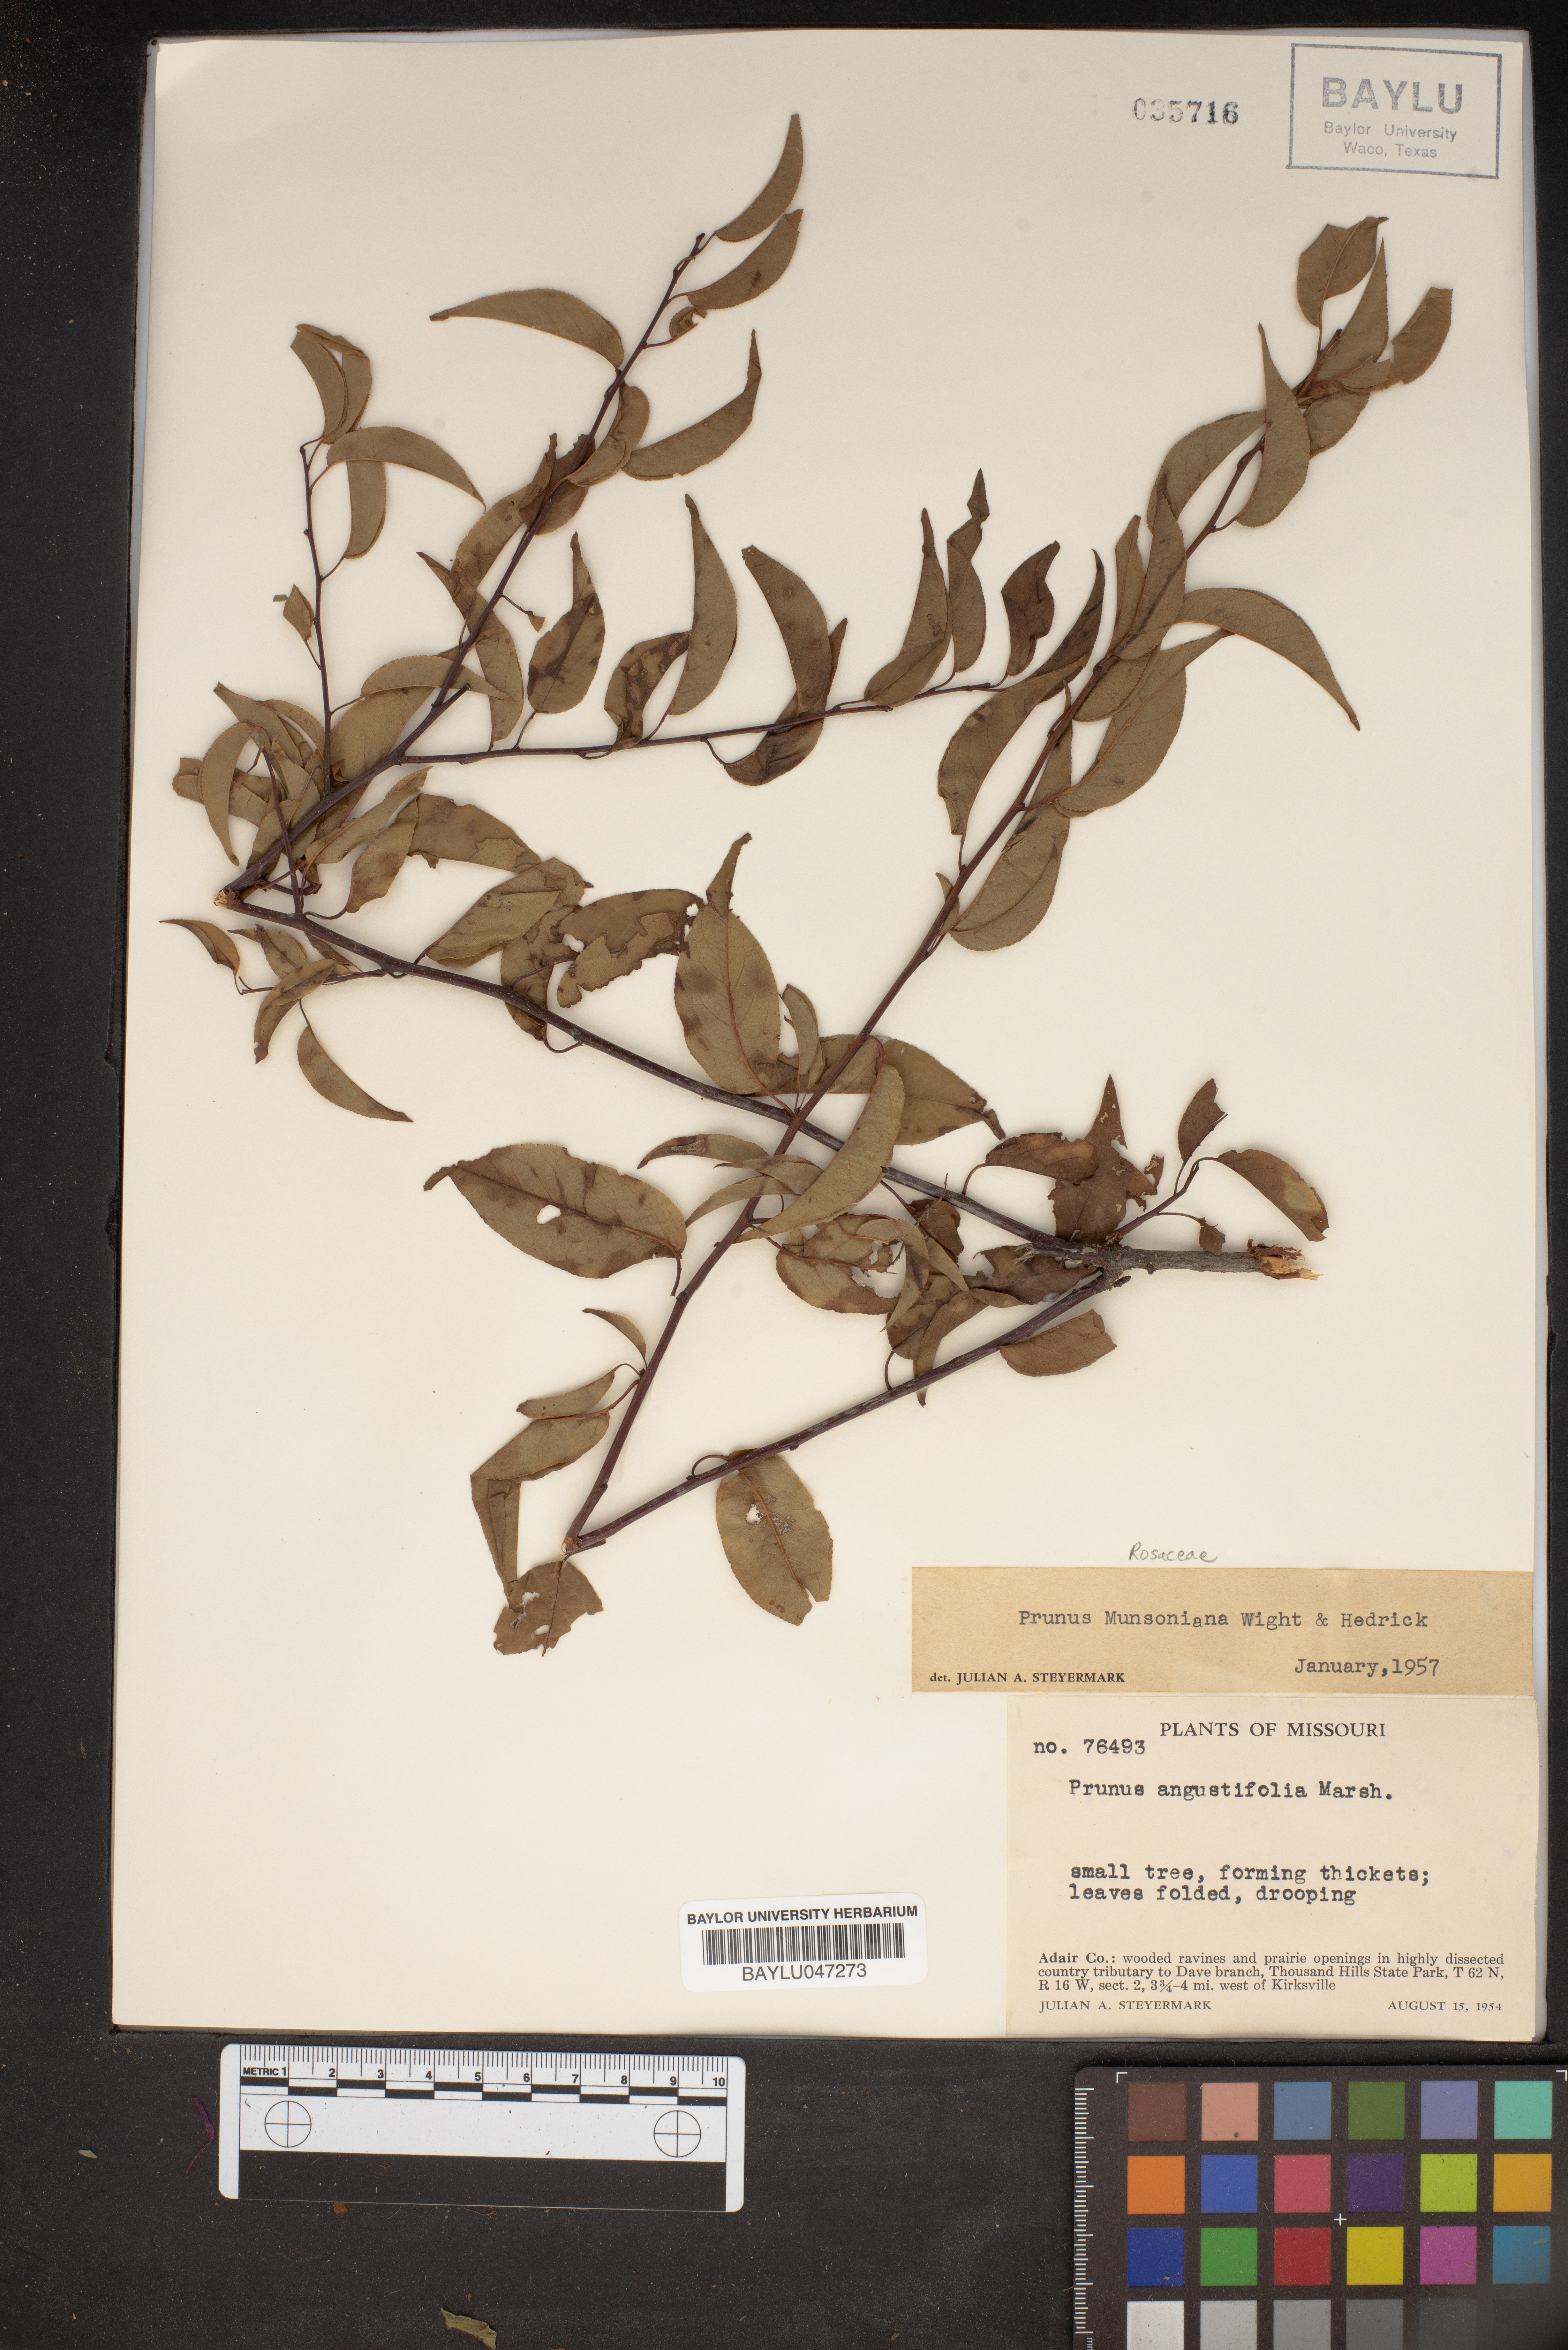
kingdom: Plantae
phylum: Tracheophyta
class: Magnoliopsida
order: Rosales
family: Rosaceae
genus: Prunus
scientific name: Prunus munsoniana
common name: Creek plum
